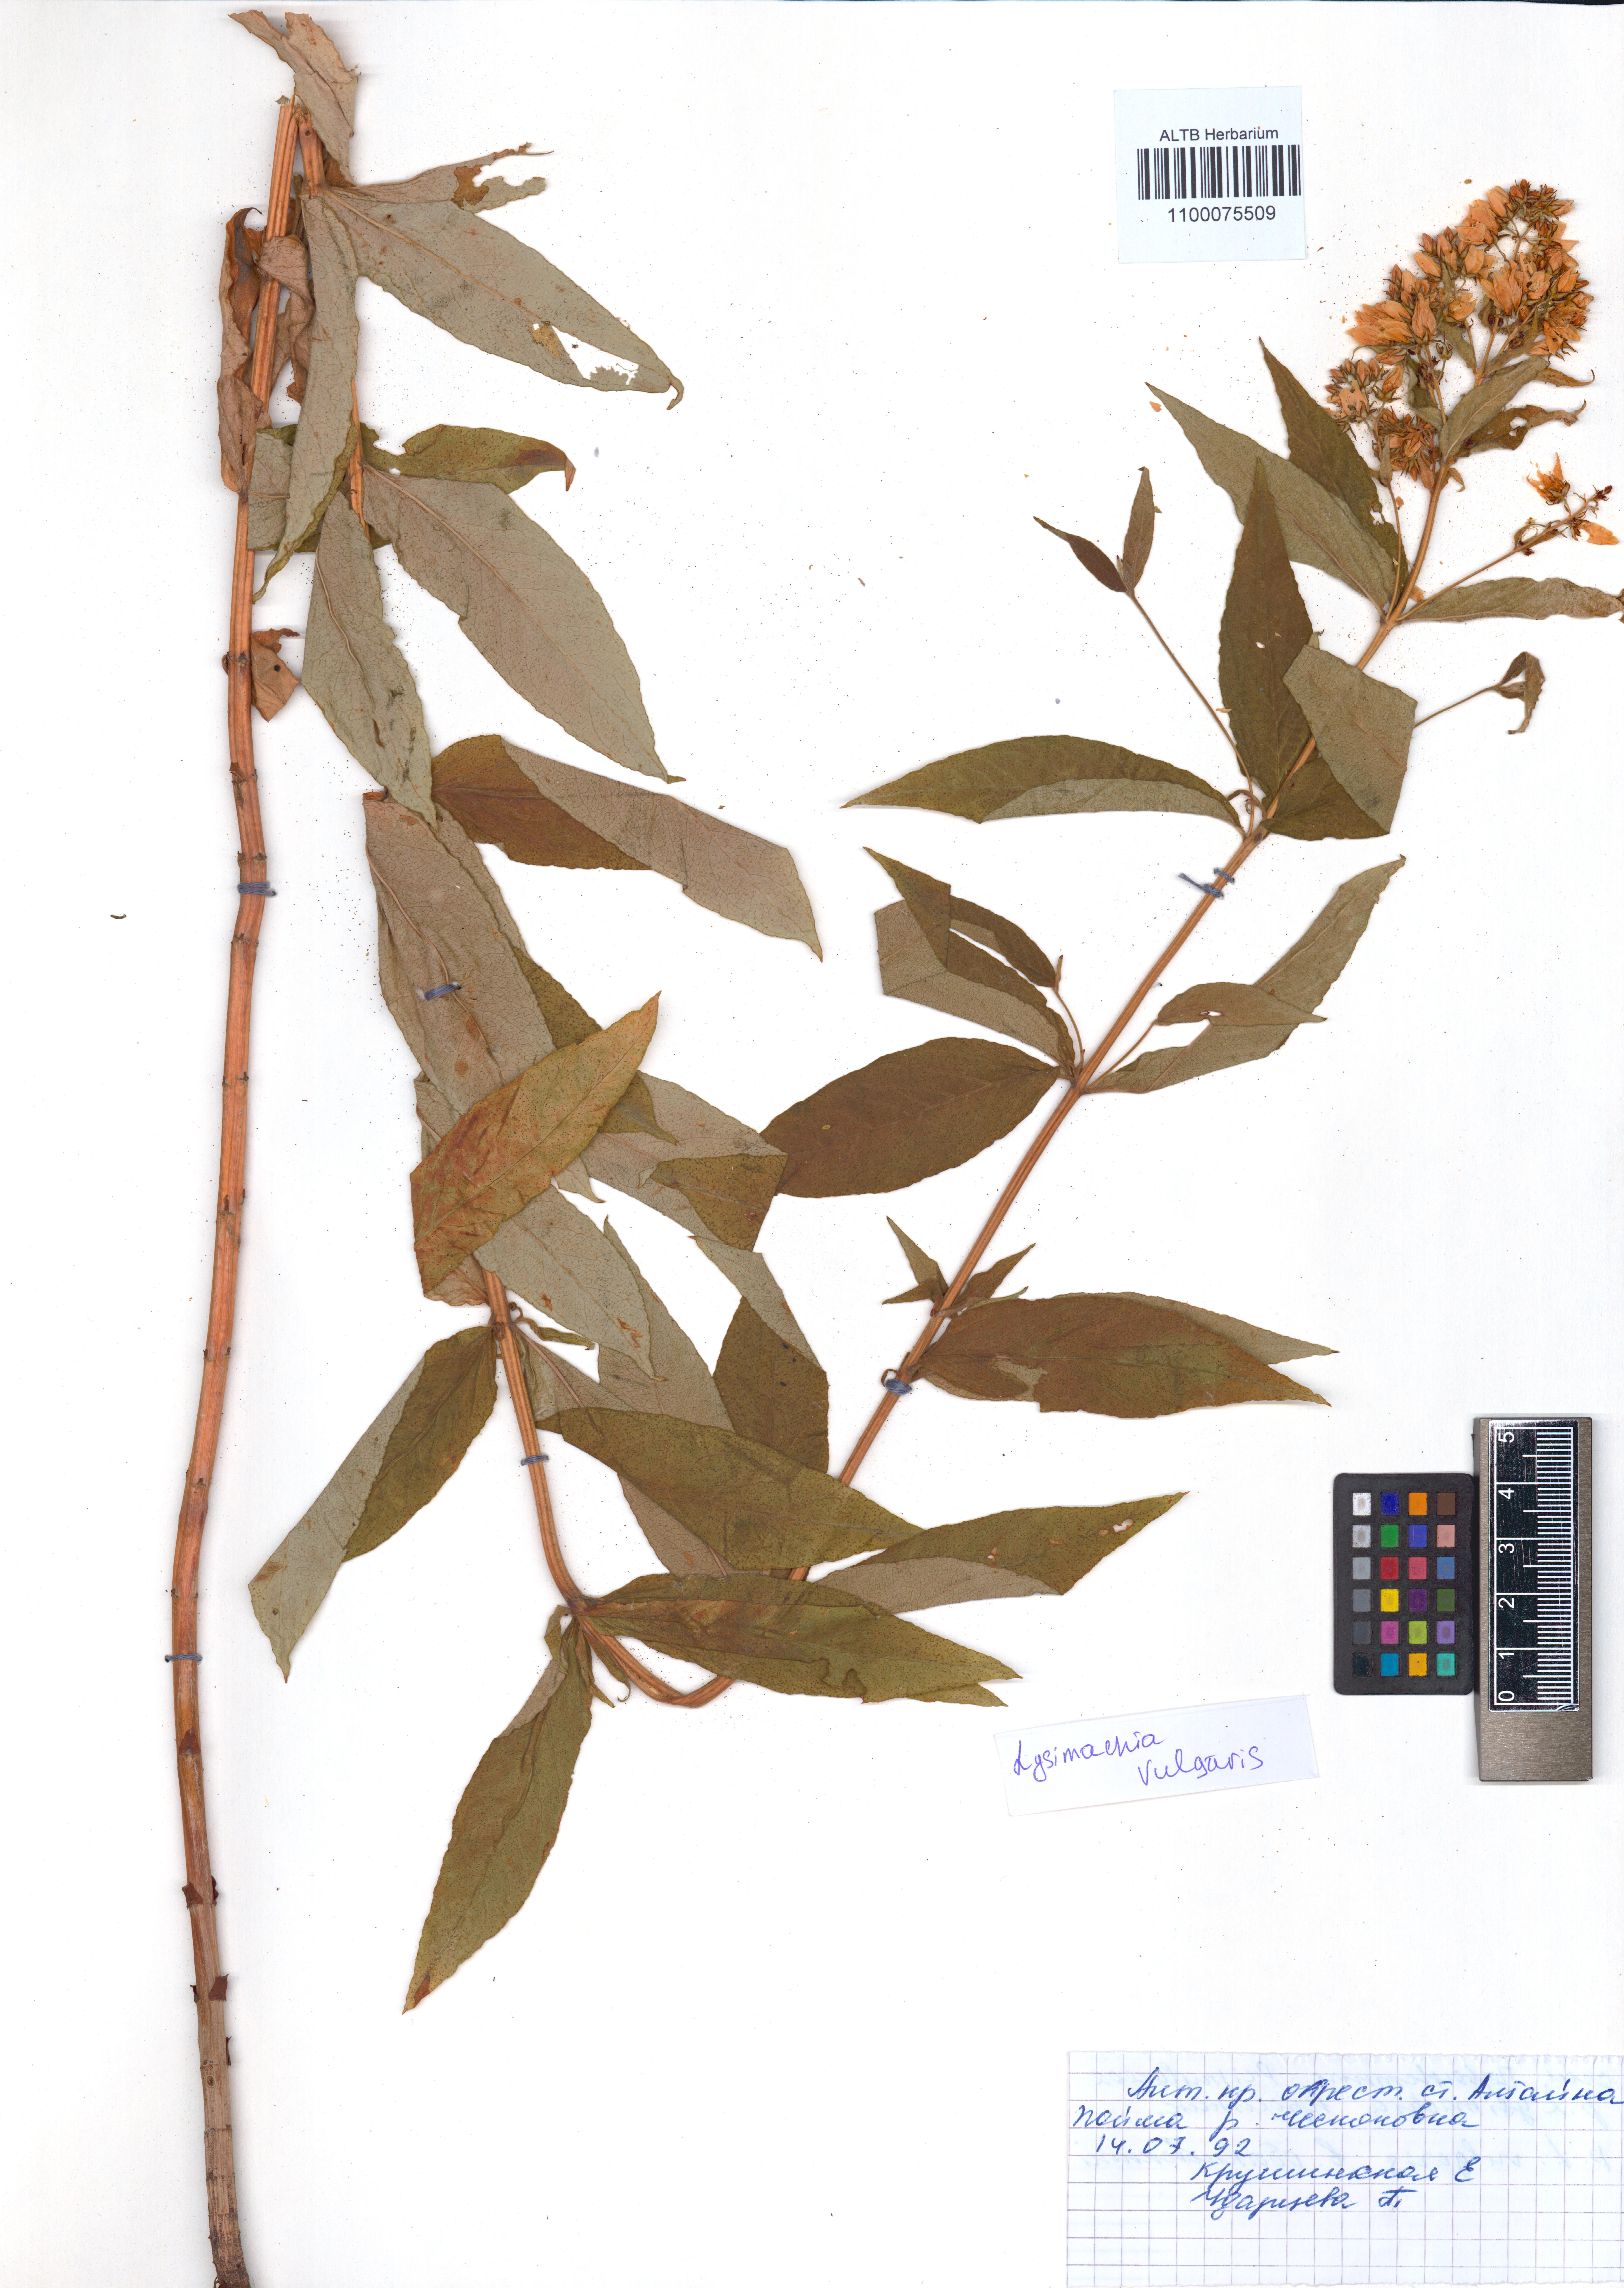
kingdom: Plantae
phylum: Tracheophyta
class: Magnoliopsida
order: Ericales
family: Primulaceae
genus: Lysimachia
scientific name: Lysimachia vulgaris
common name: Yellow loosestrife
